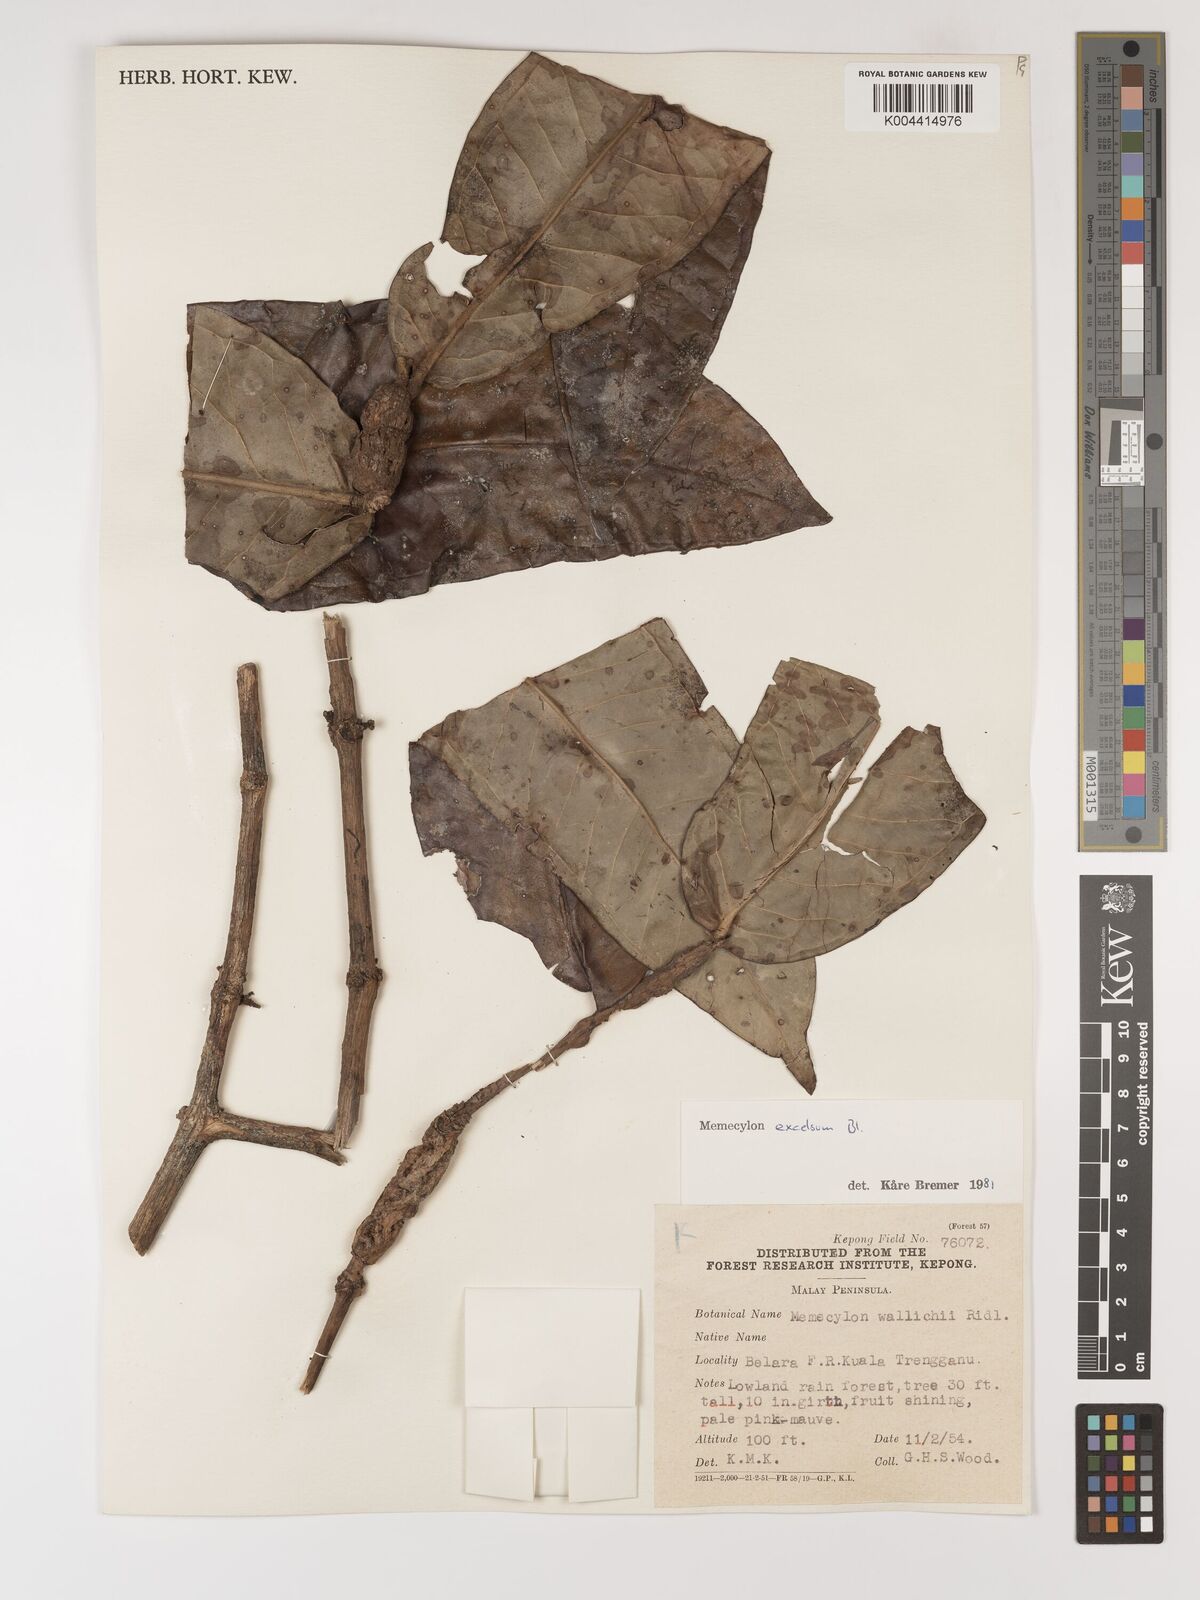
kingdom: Plantae
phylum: Tracheophyta
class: Magnoliopsida
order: Myrtales
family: Melastomataceae
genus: Memecylon
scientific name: Memecylon excelsum
